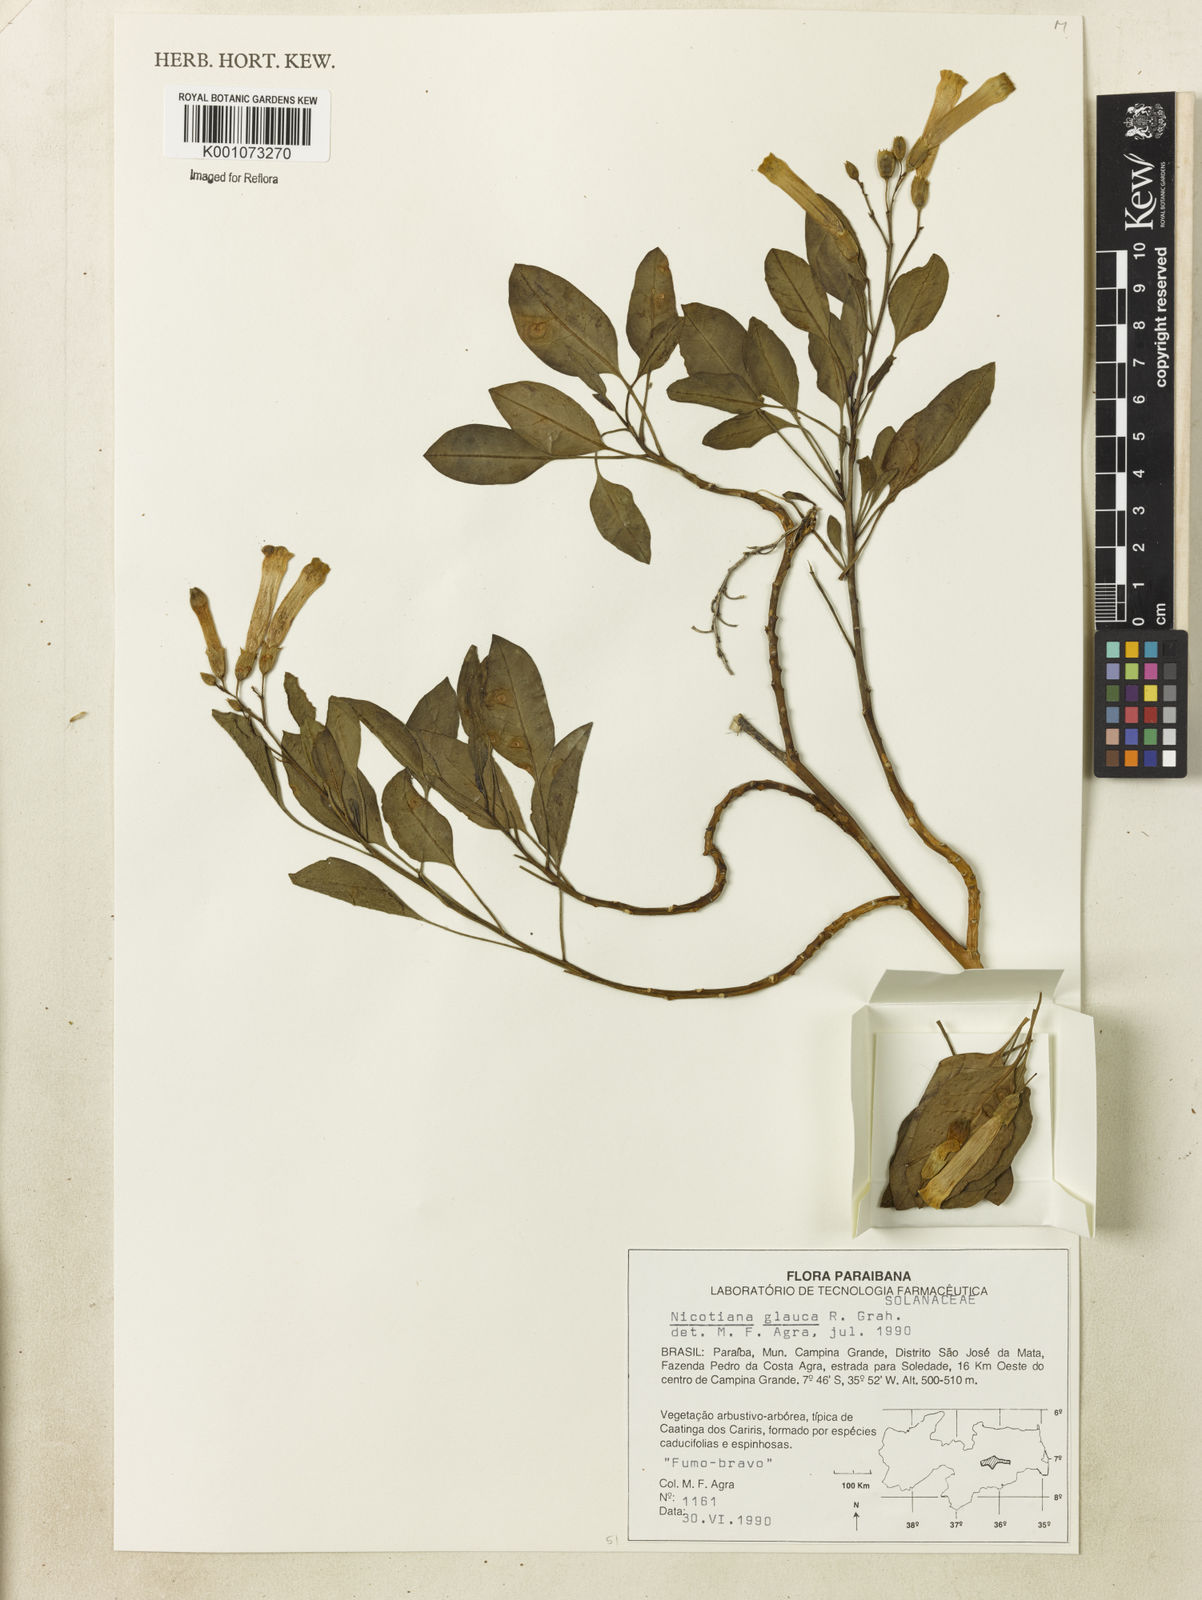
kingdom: Plantae
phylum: Tracheophyta
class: Magnoliopsida
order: Solanales
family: Solanaceae
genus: Nicotiana
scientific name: Nicotiana glauca
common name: Tree tobacco
